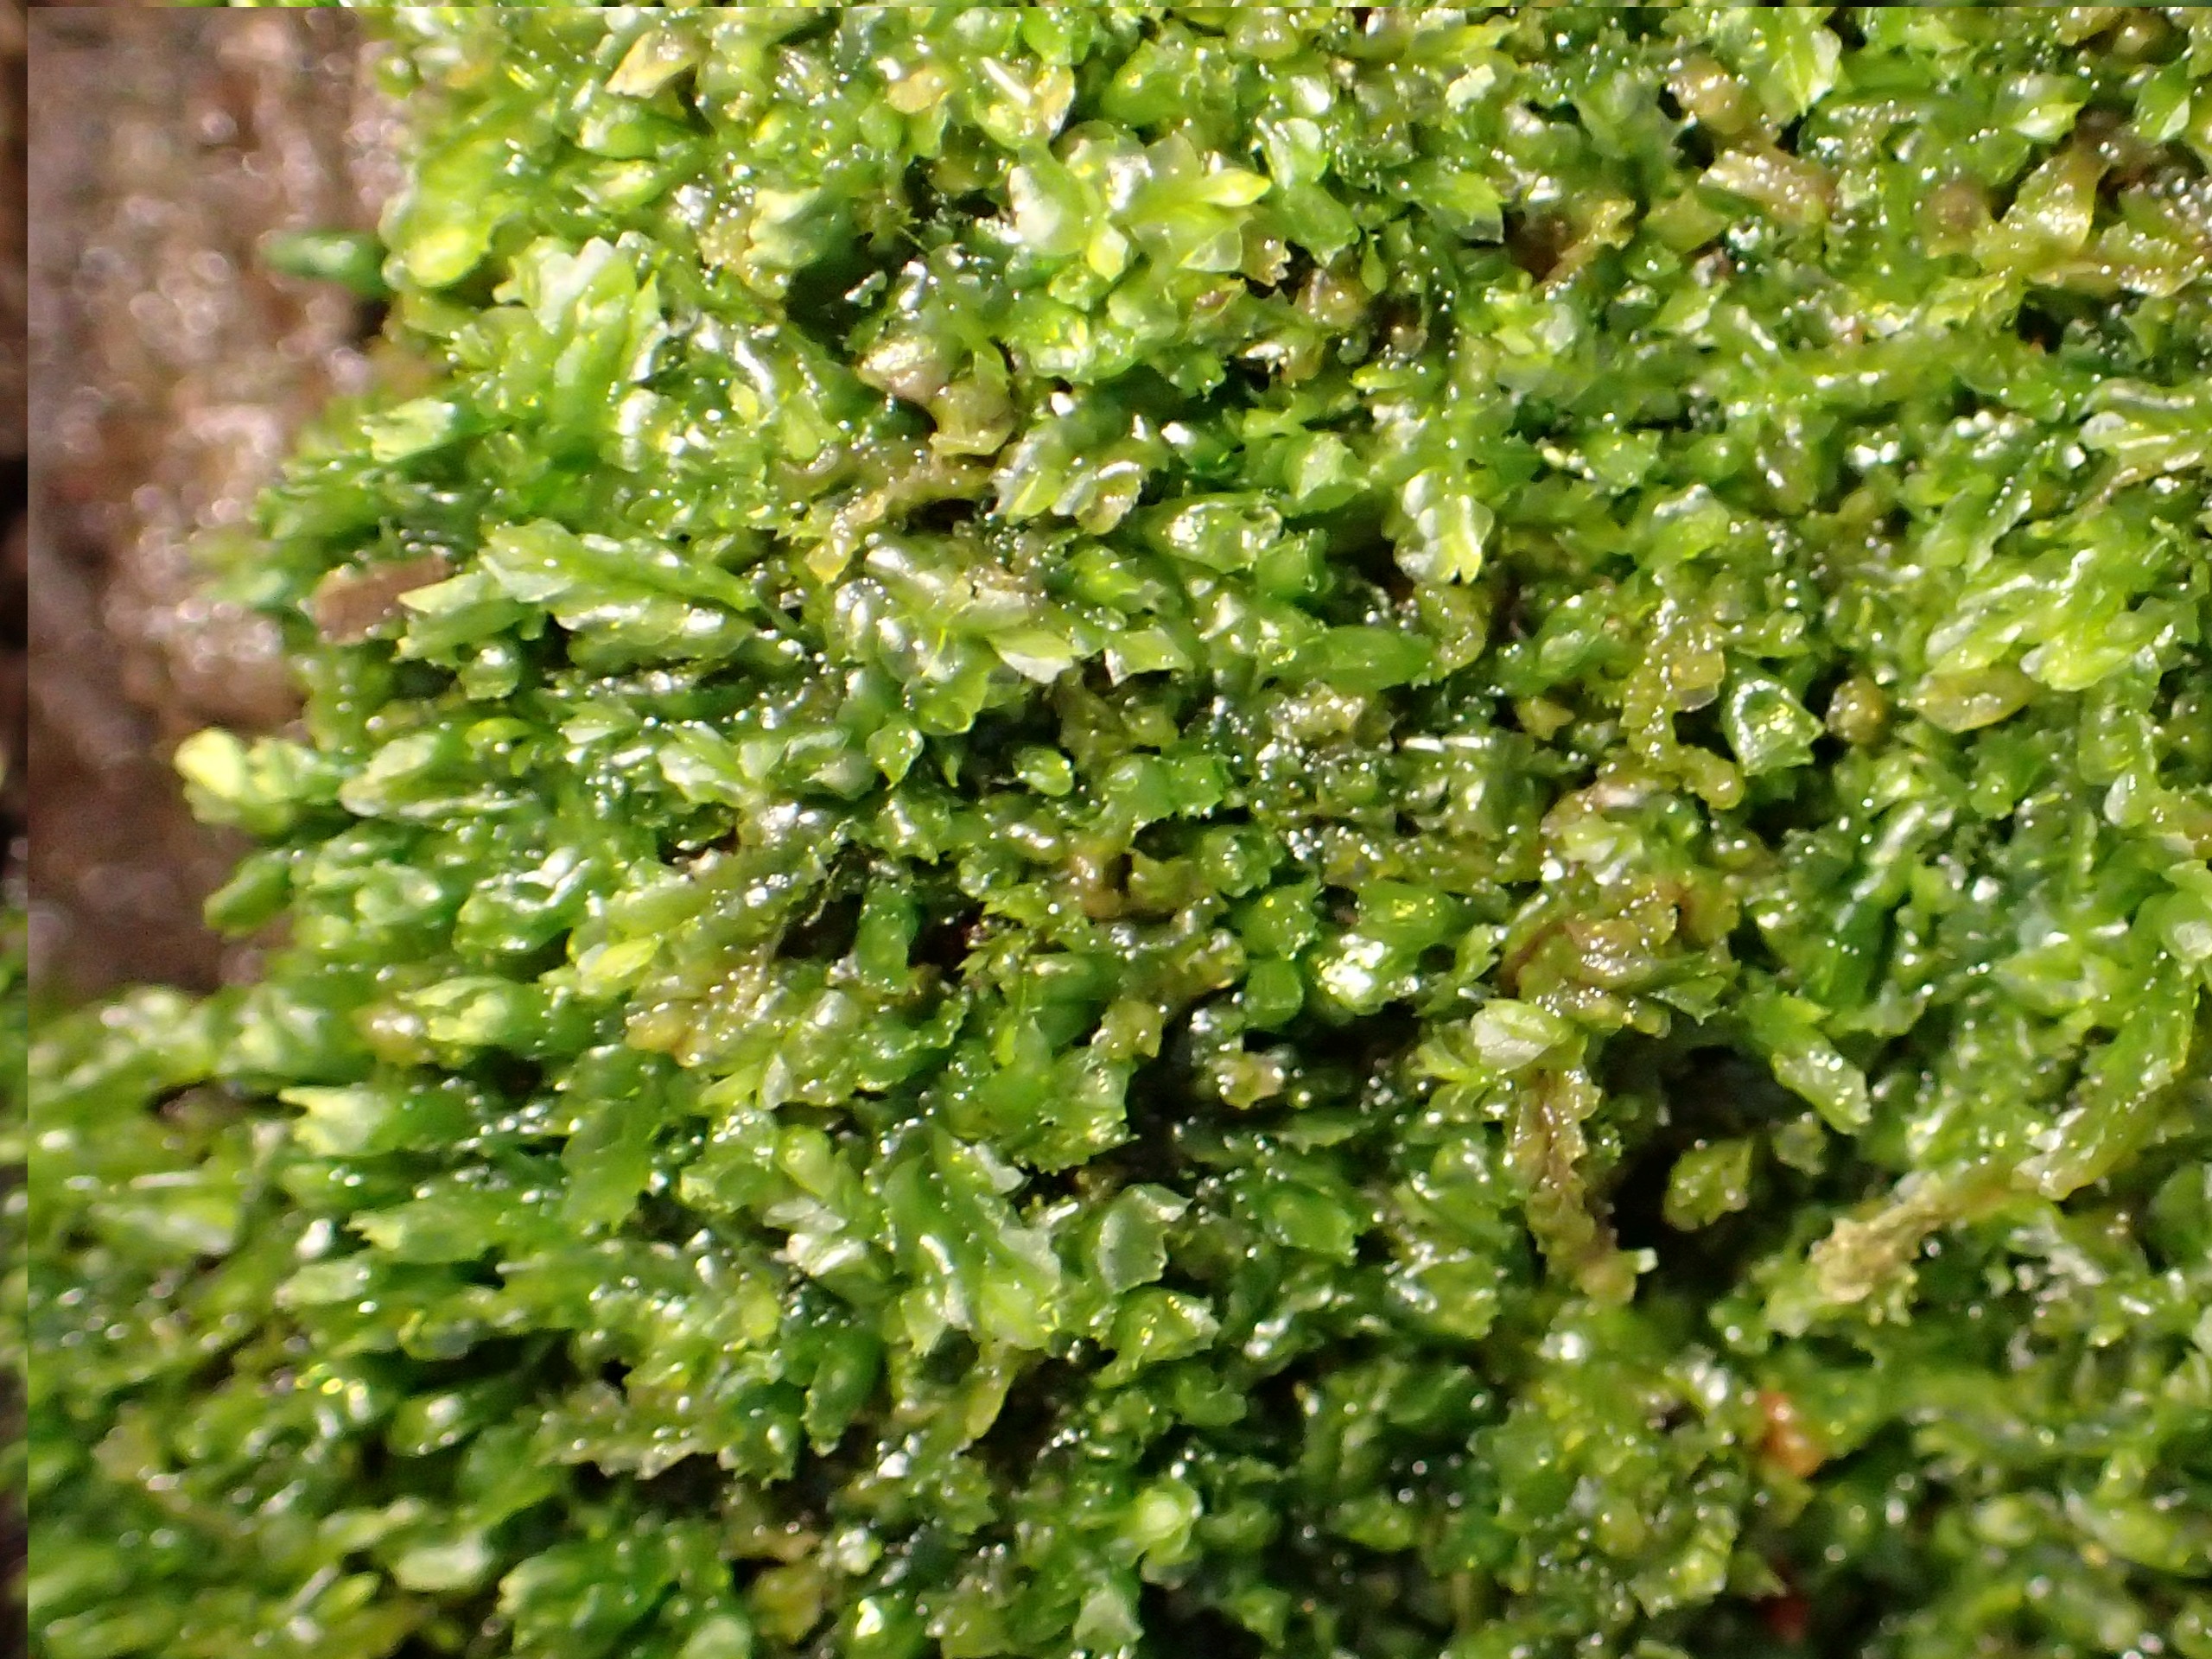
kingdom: Plantae
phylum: Marchantiophyta
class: Jungermanniopsida
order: Jungermanniales
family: Lophocoleaceae
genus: Lophocolea
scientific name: Lophocolea heterophylla
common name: Forskelligbladet kamsvøb
